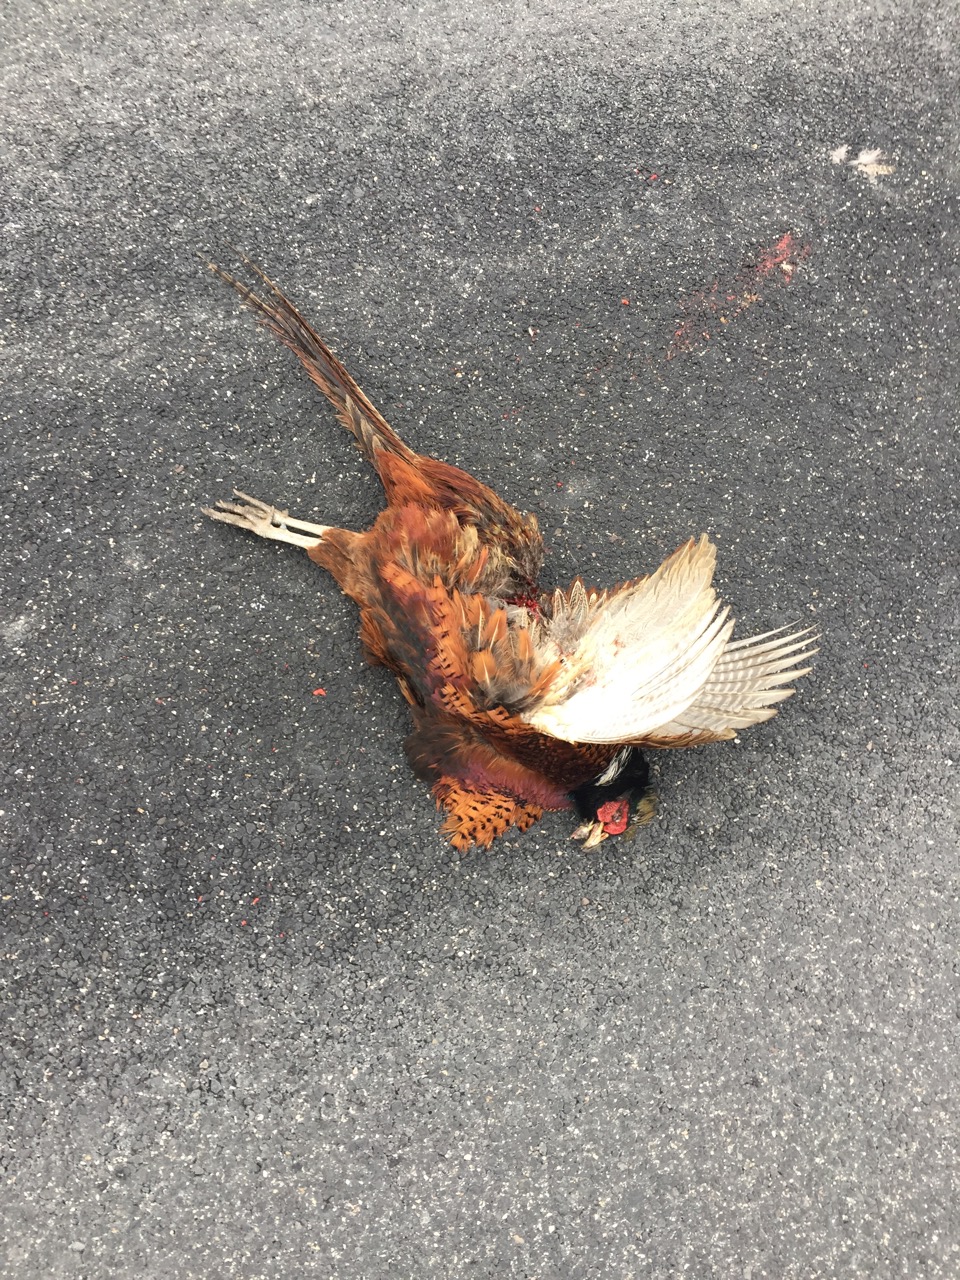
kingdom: Animalia
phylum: Chordata
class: Aves
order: Galliformes
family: Phasianidae
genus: Phasianus
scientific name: Phasianus colchicus
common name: Common pheasant
